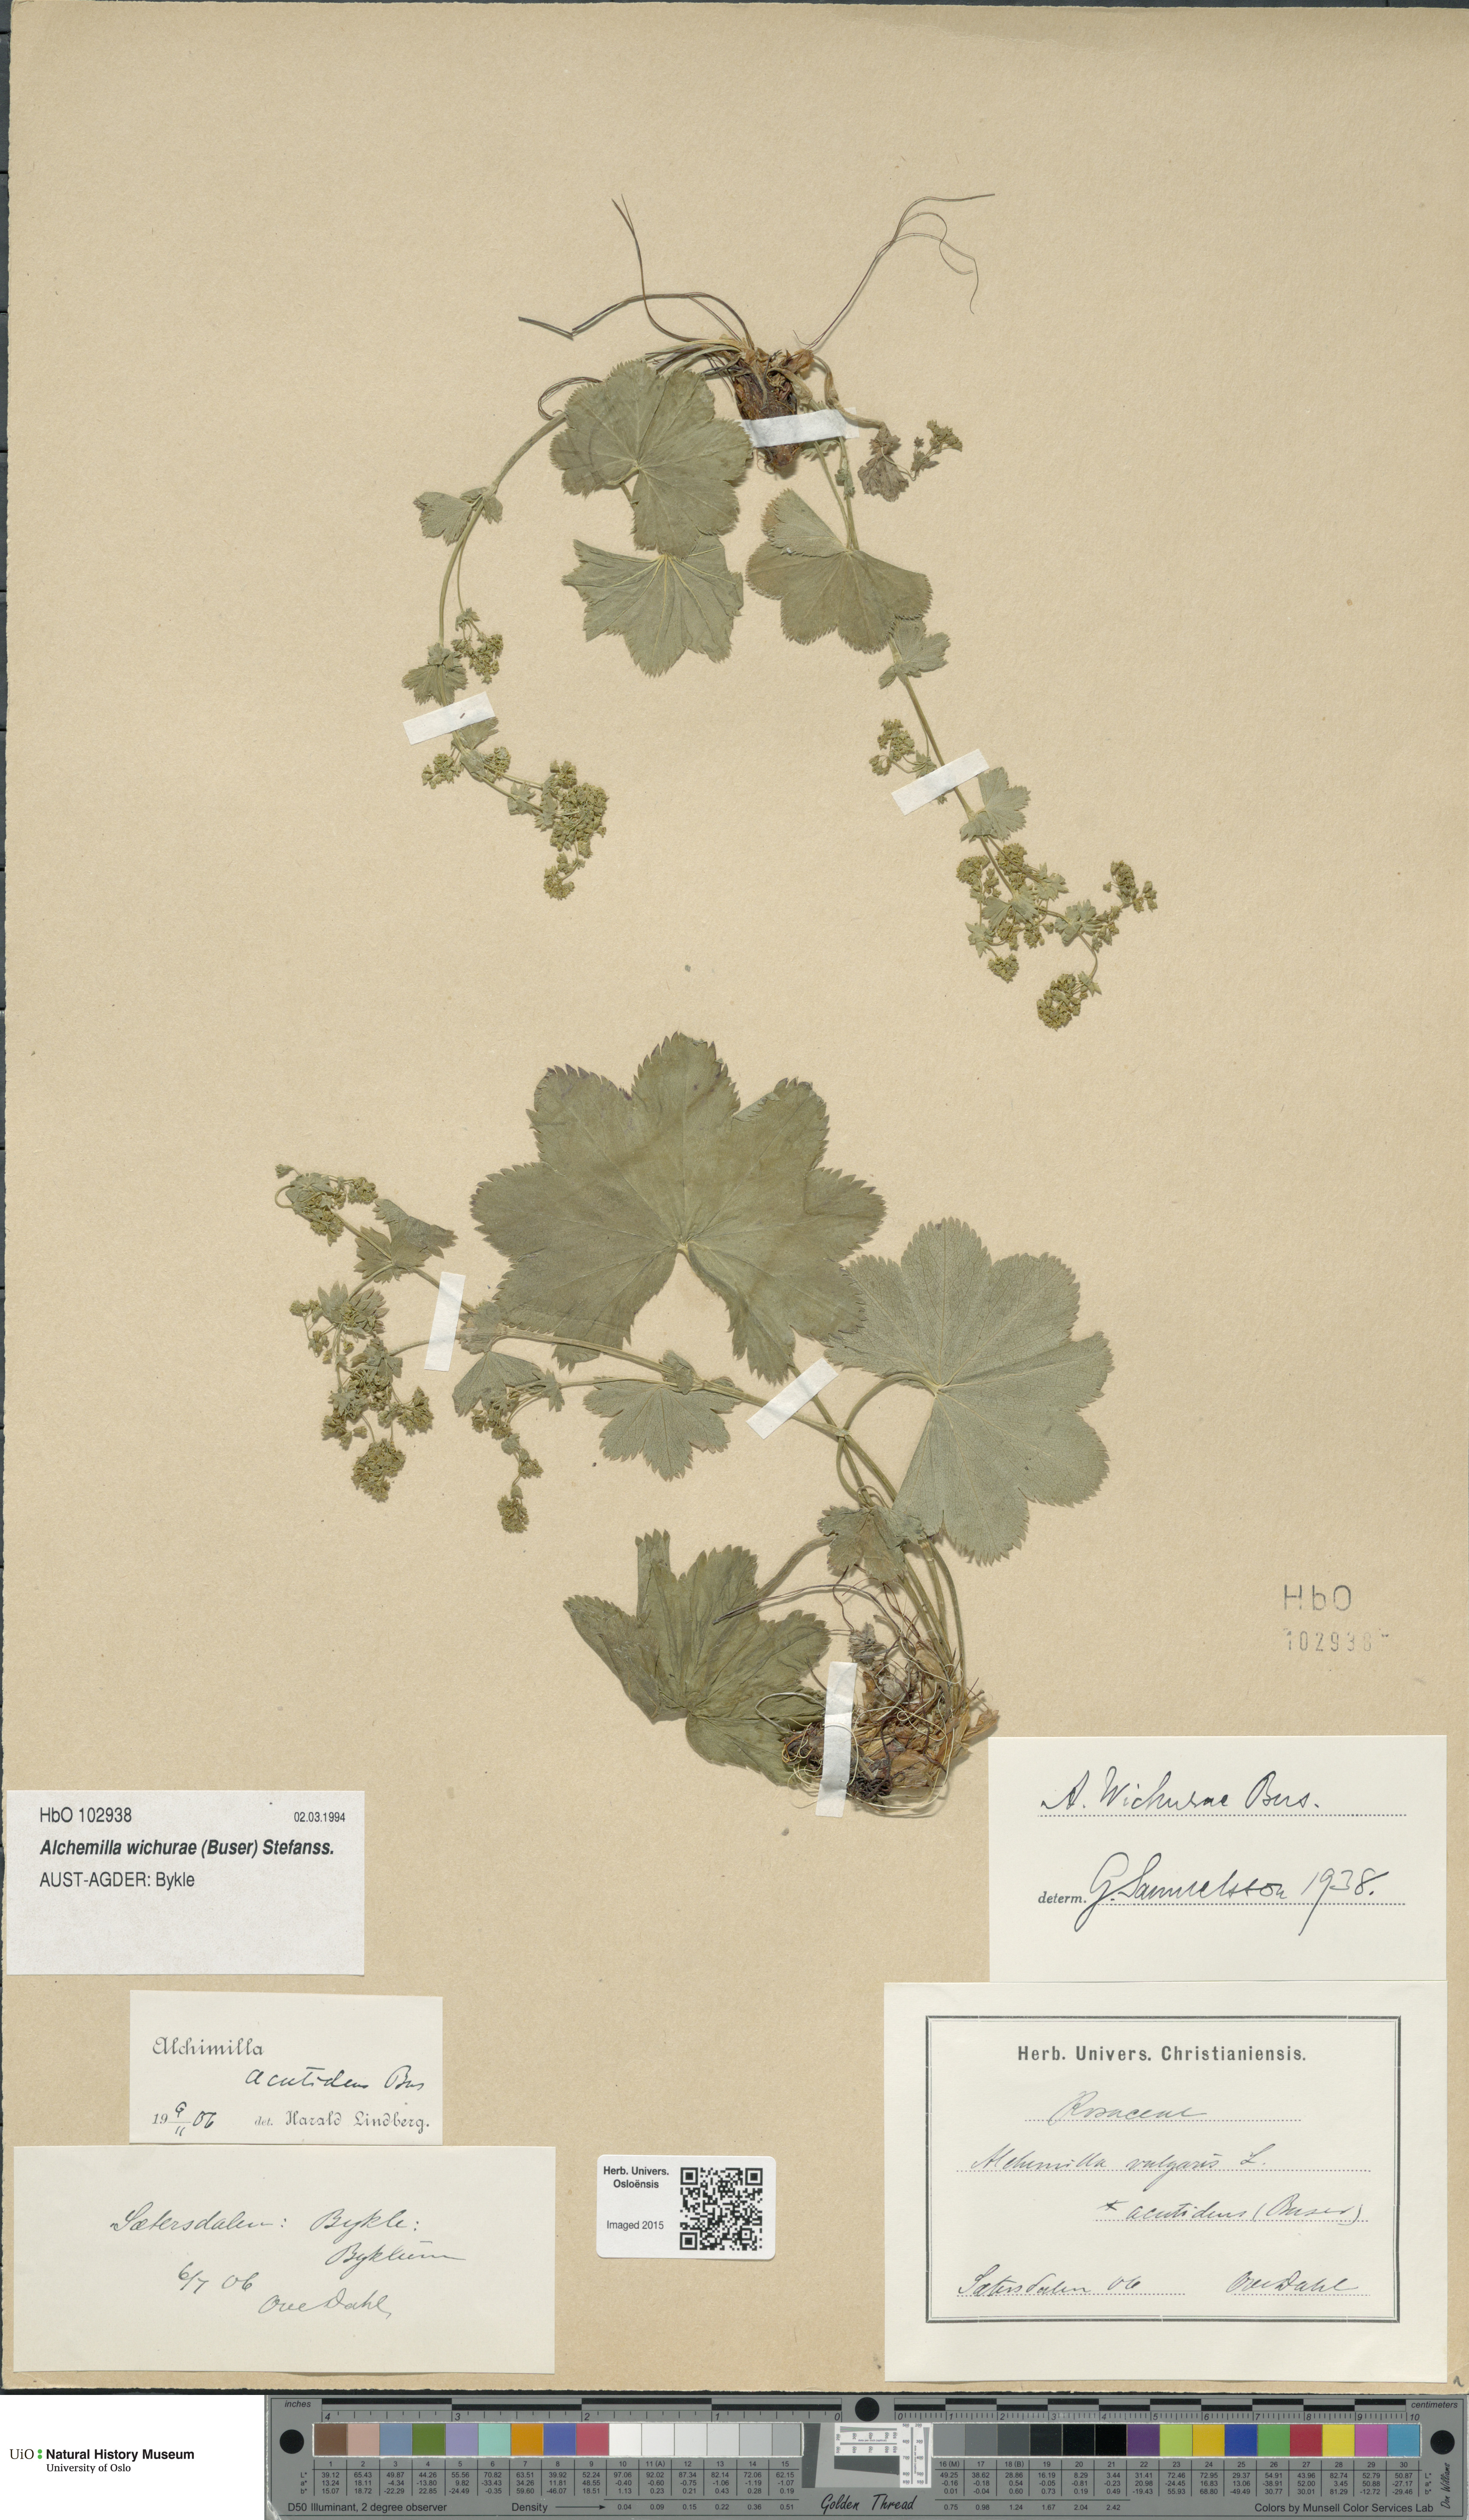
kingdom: Plantae
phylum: Tracheophyta
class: Magnoliopsida
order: Rosales
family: Rosaceae
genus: Alchemilla
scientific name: Alchemilla wichurae
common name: Rock lady's mantle
